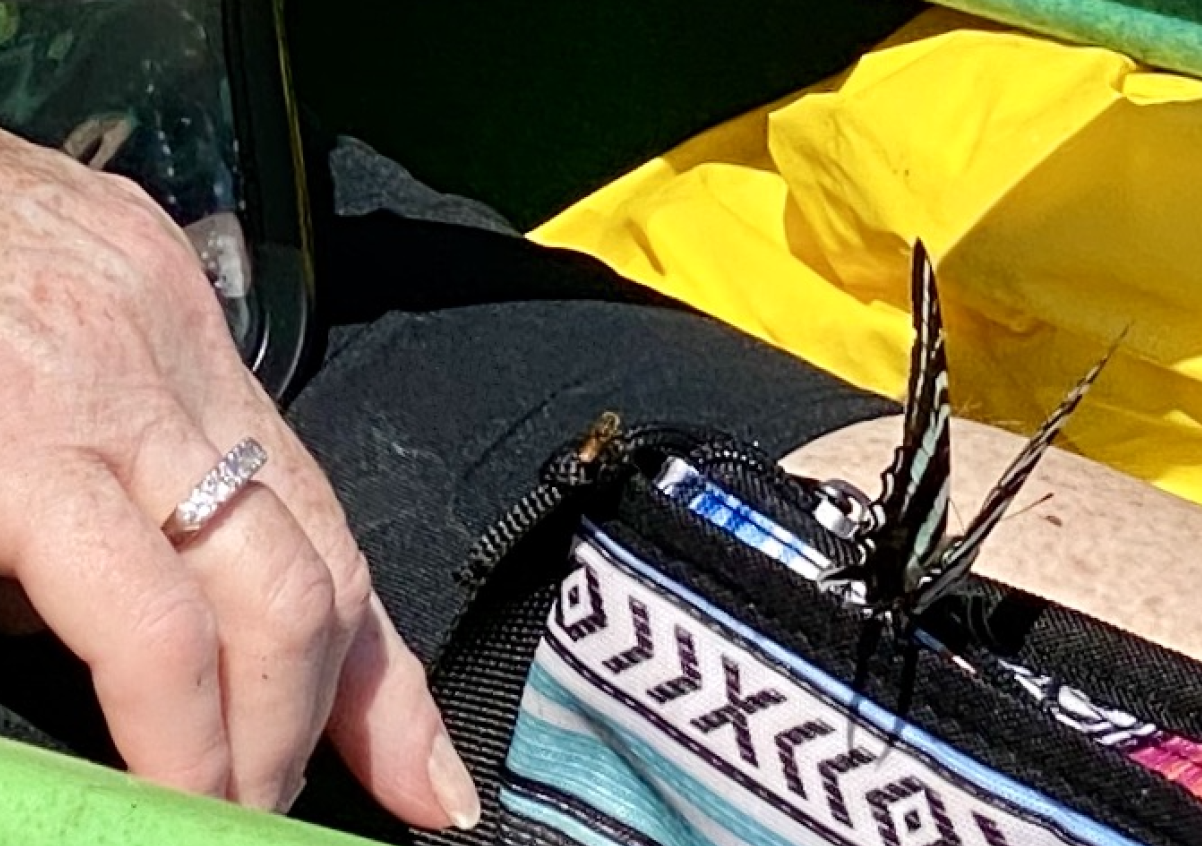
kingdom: Animalia
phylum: Arthropoda
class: Insecta
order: Lepidoptera
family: Papilionidae
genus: Protographium
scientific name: Protographium marcellus
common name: Zebra Swallowtail
